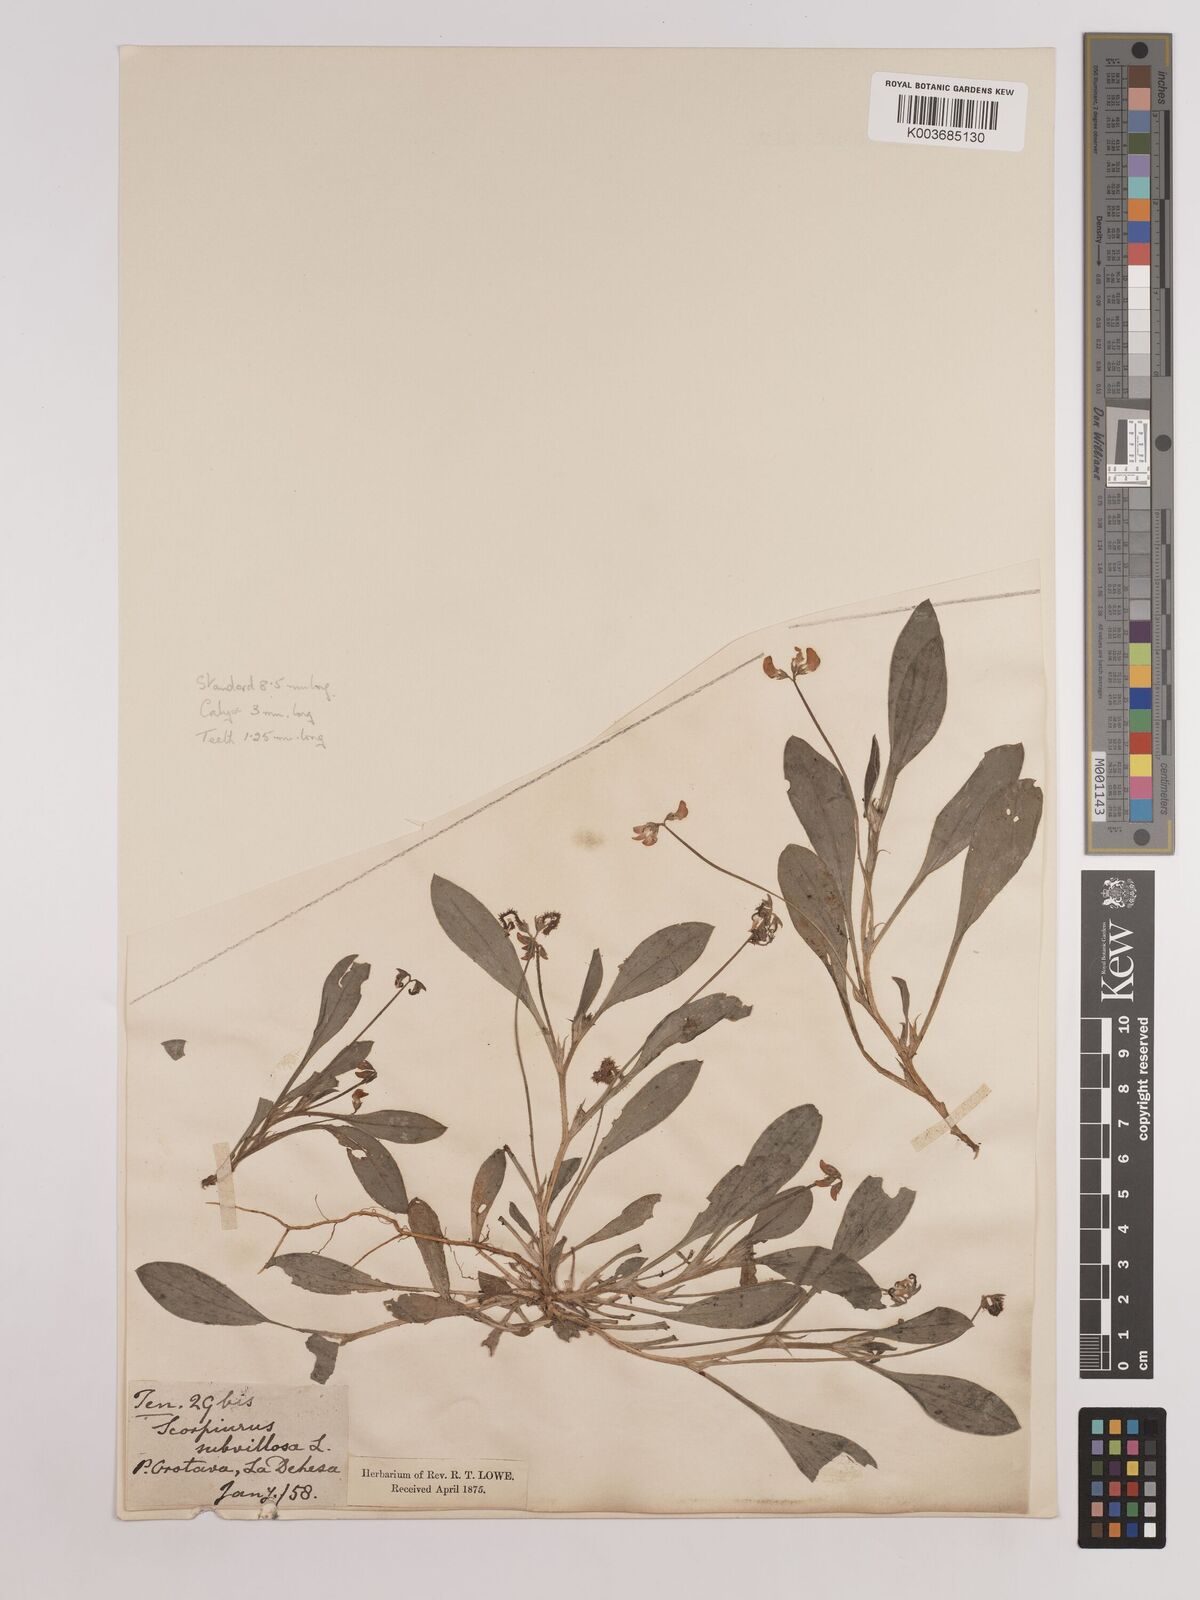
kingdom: Plantae
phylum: Tracheophyta
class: Magnoliopsida
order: Fabales
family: Fabaceae
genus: Scorpiurus
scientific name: Scorpiurus muricatus
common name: Caterpillar-plant
